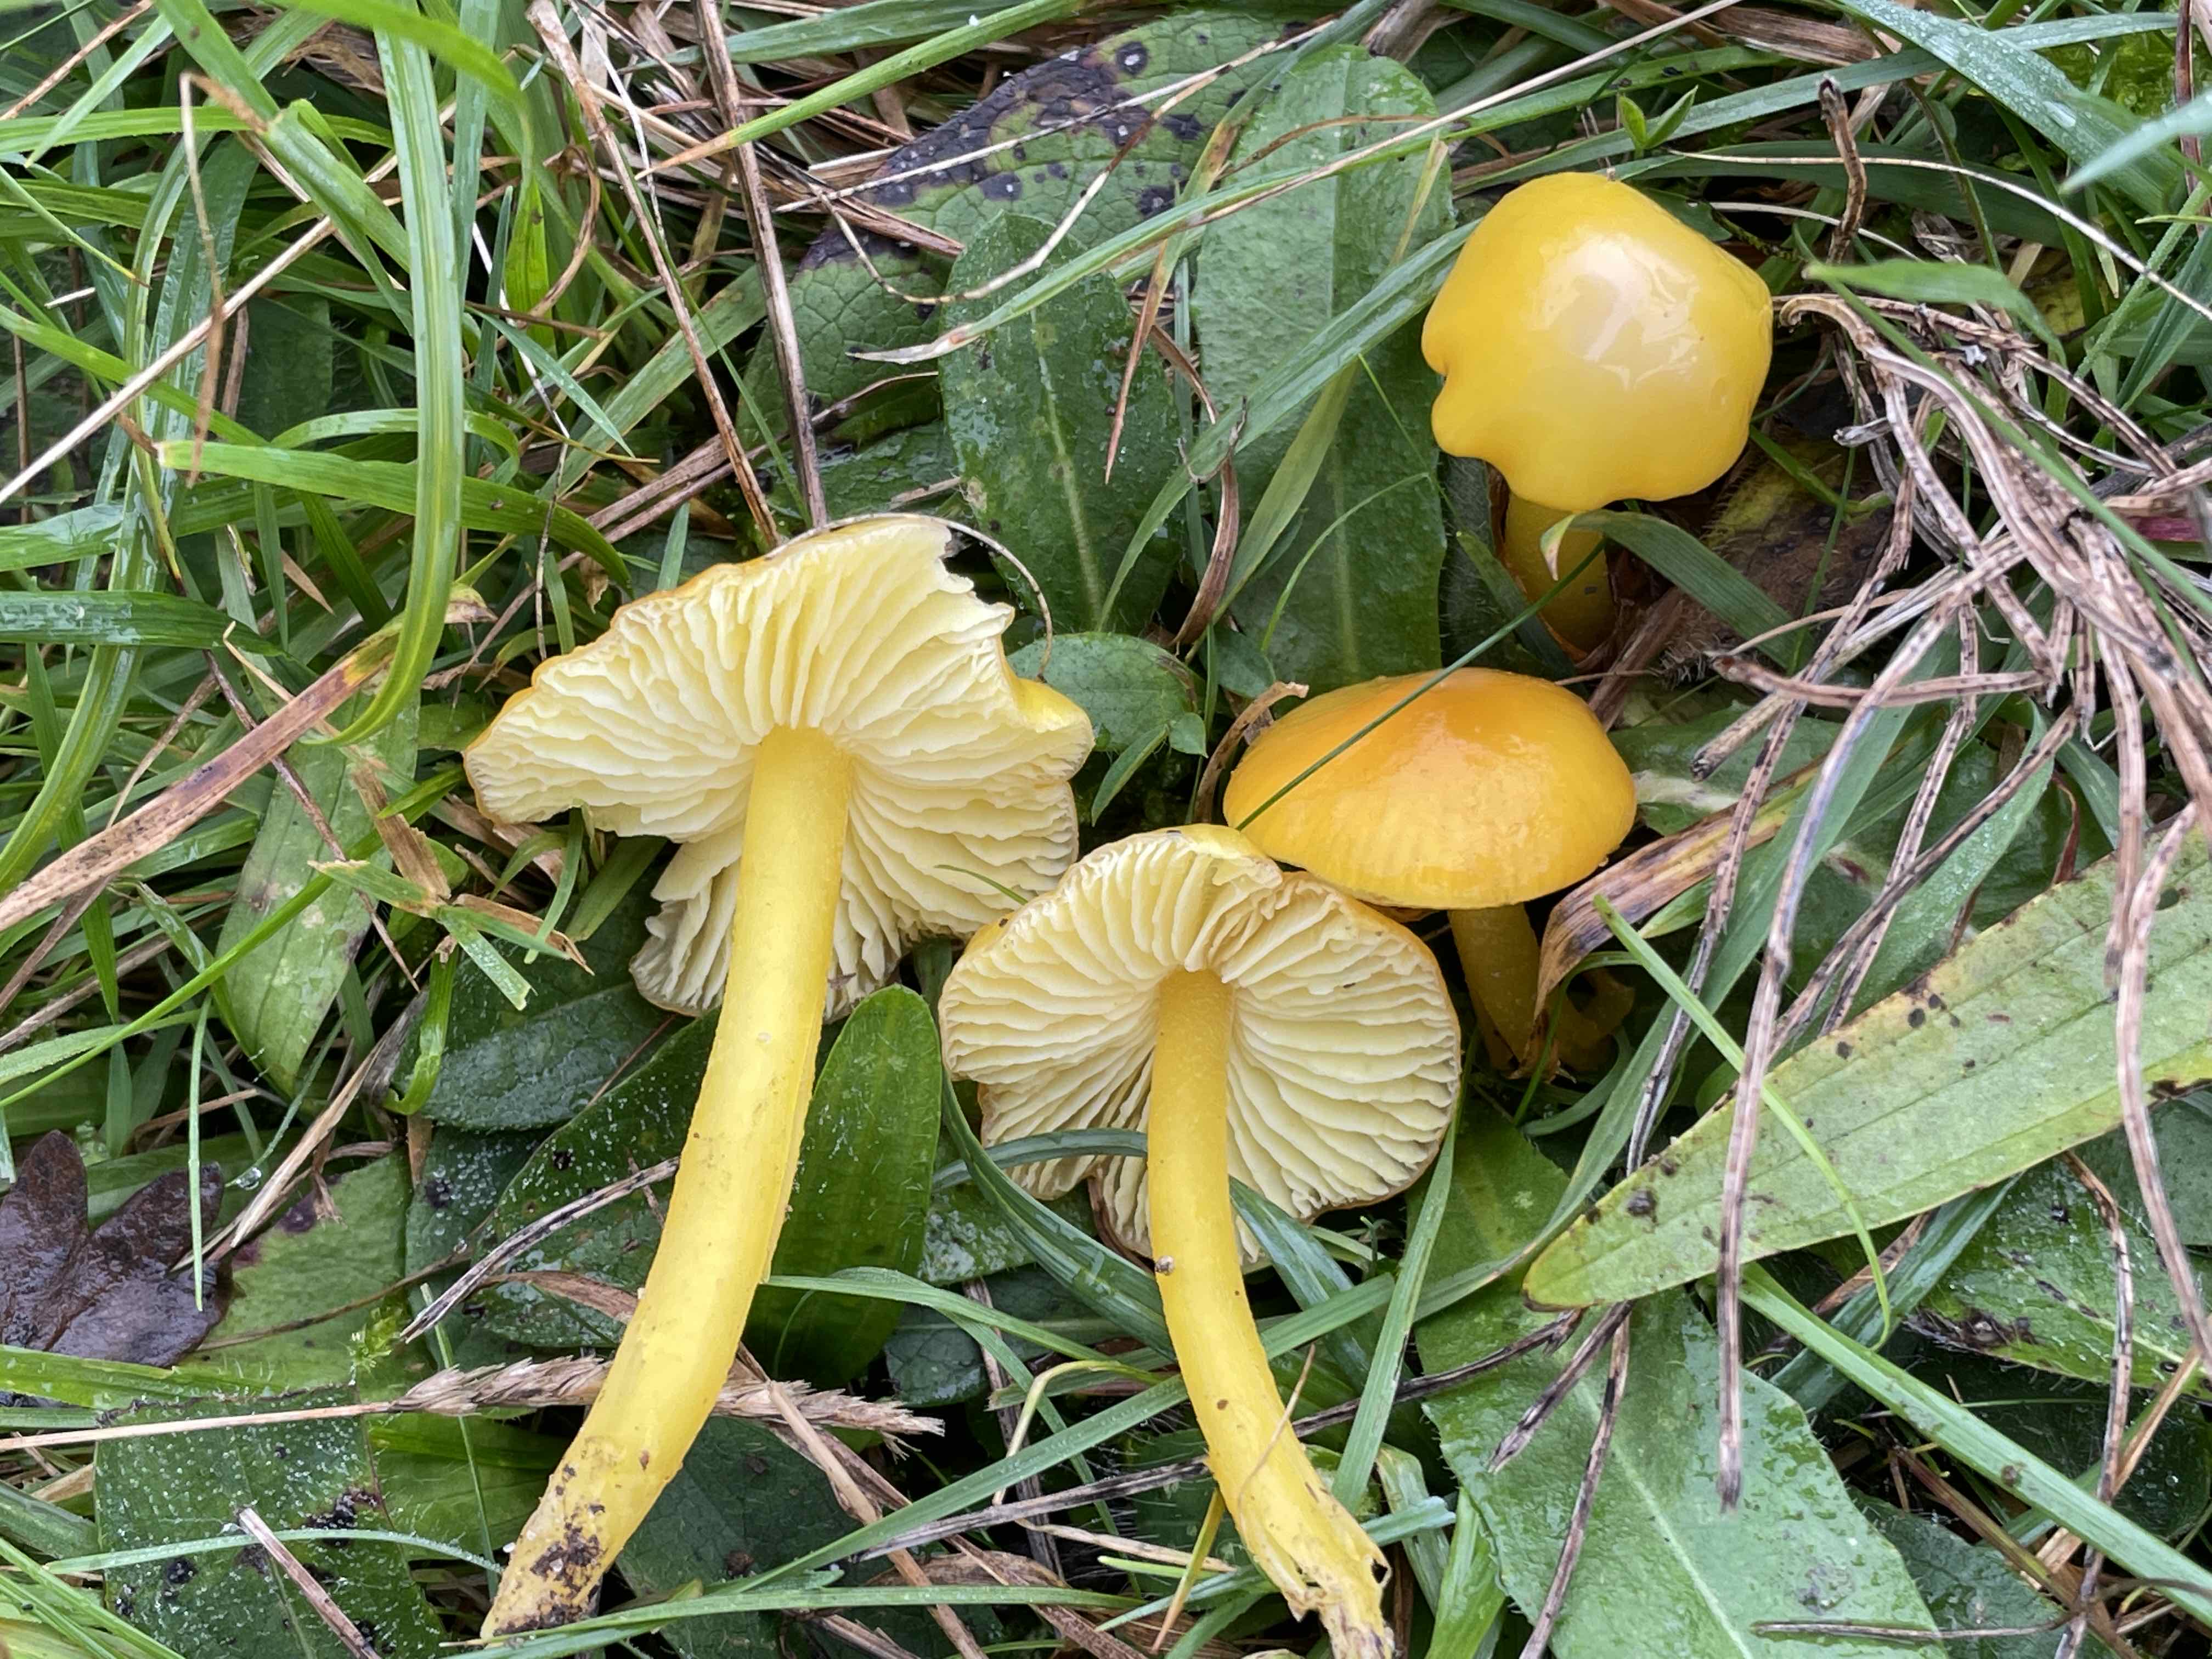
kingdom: Fungi
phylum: Basidiomycota
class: Agaricomycetes
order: Agaricales
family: Hygrophoraceae
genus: Hygrocybe
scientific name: Hygrocybe chlorophana
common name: gul vokshat
